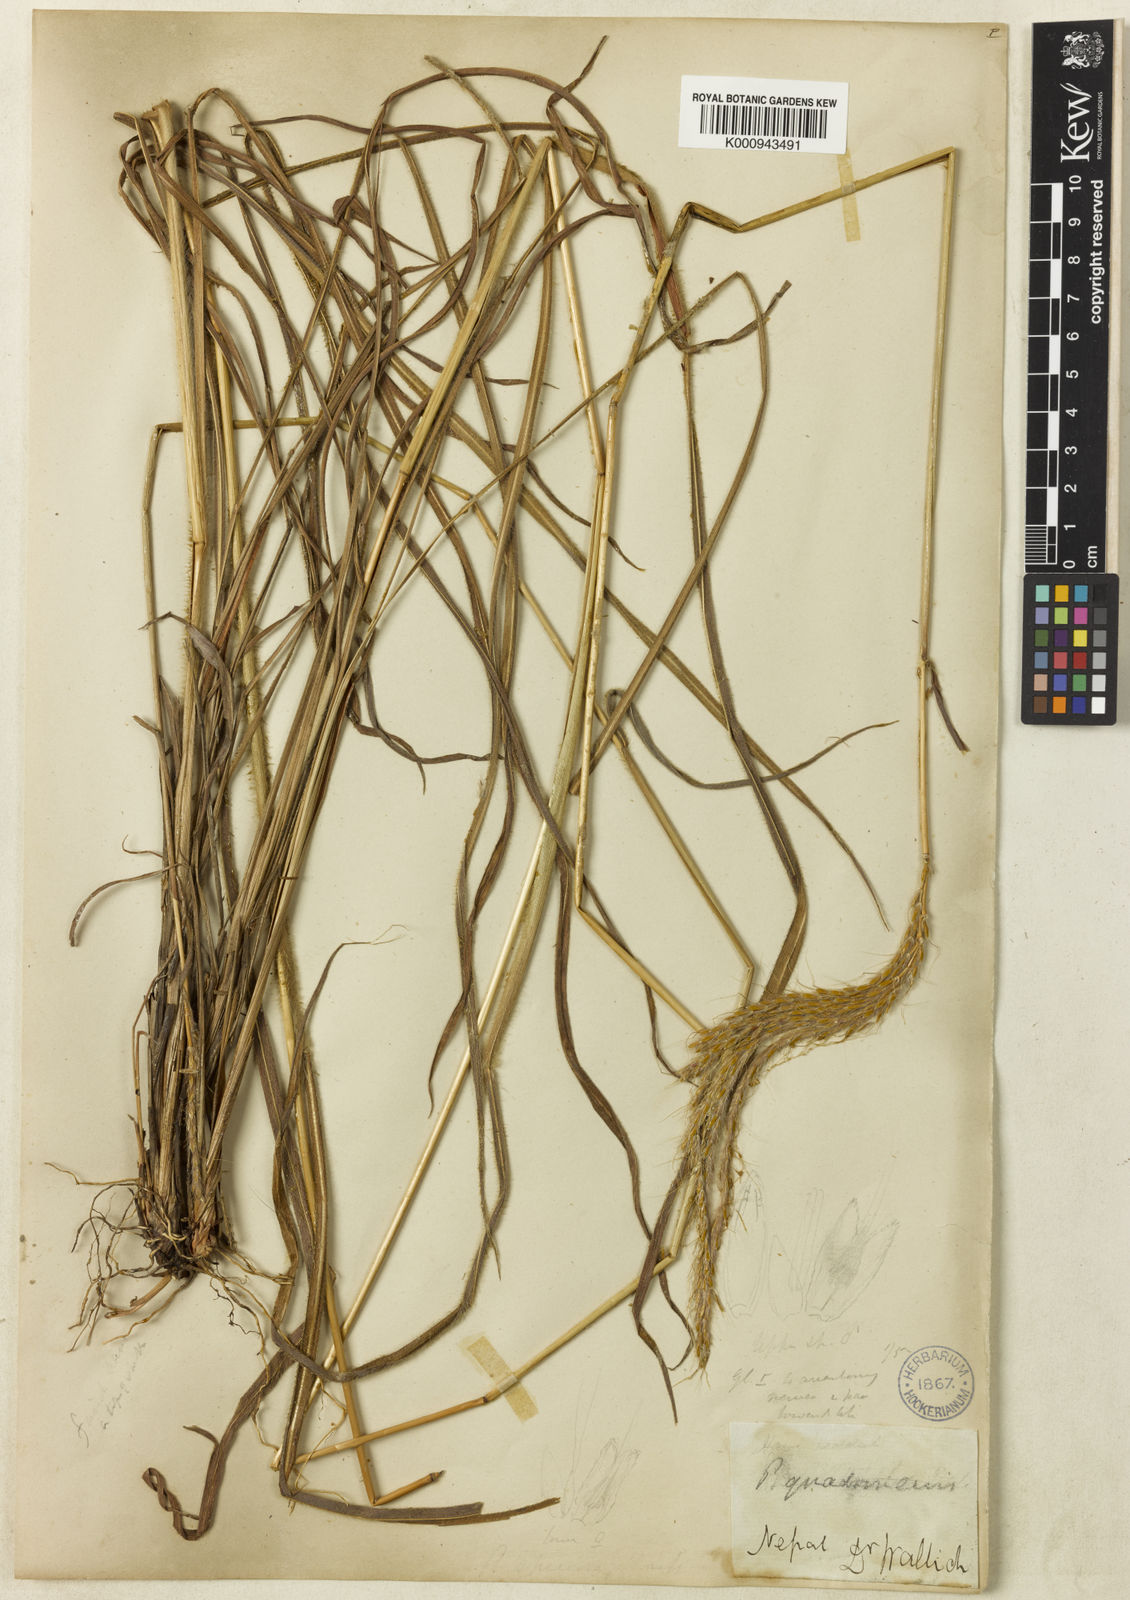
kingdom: Plantae
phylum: Tracheophyta
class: Liliopsida
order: Poales
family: Poaceae
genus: Pseudopogonatherum
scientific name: Pseudopogonatherum quadrinerve
